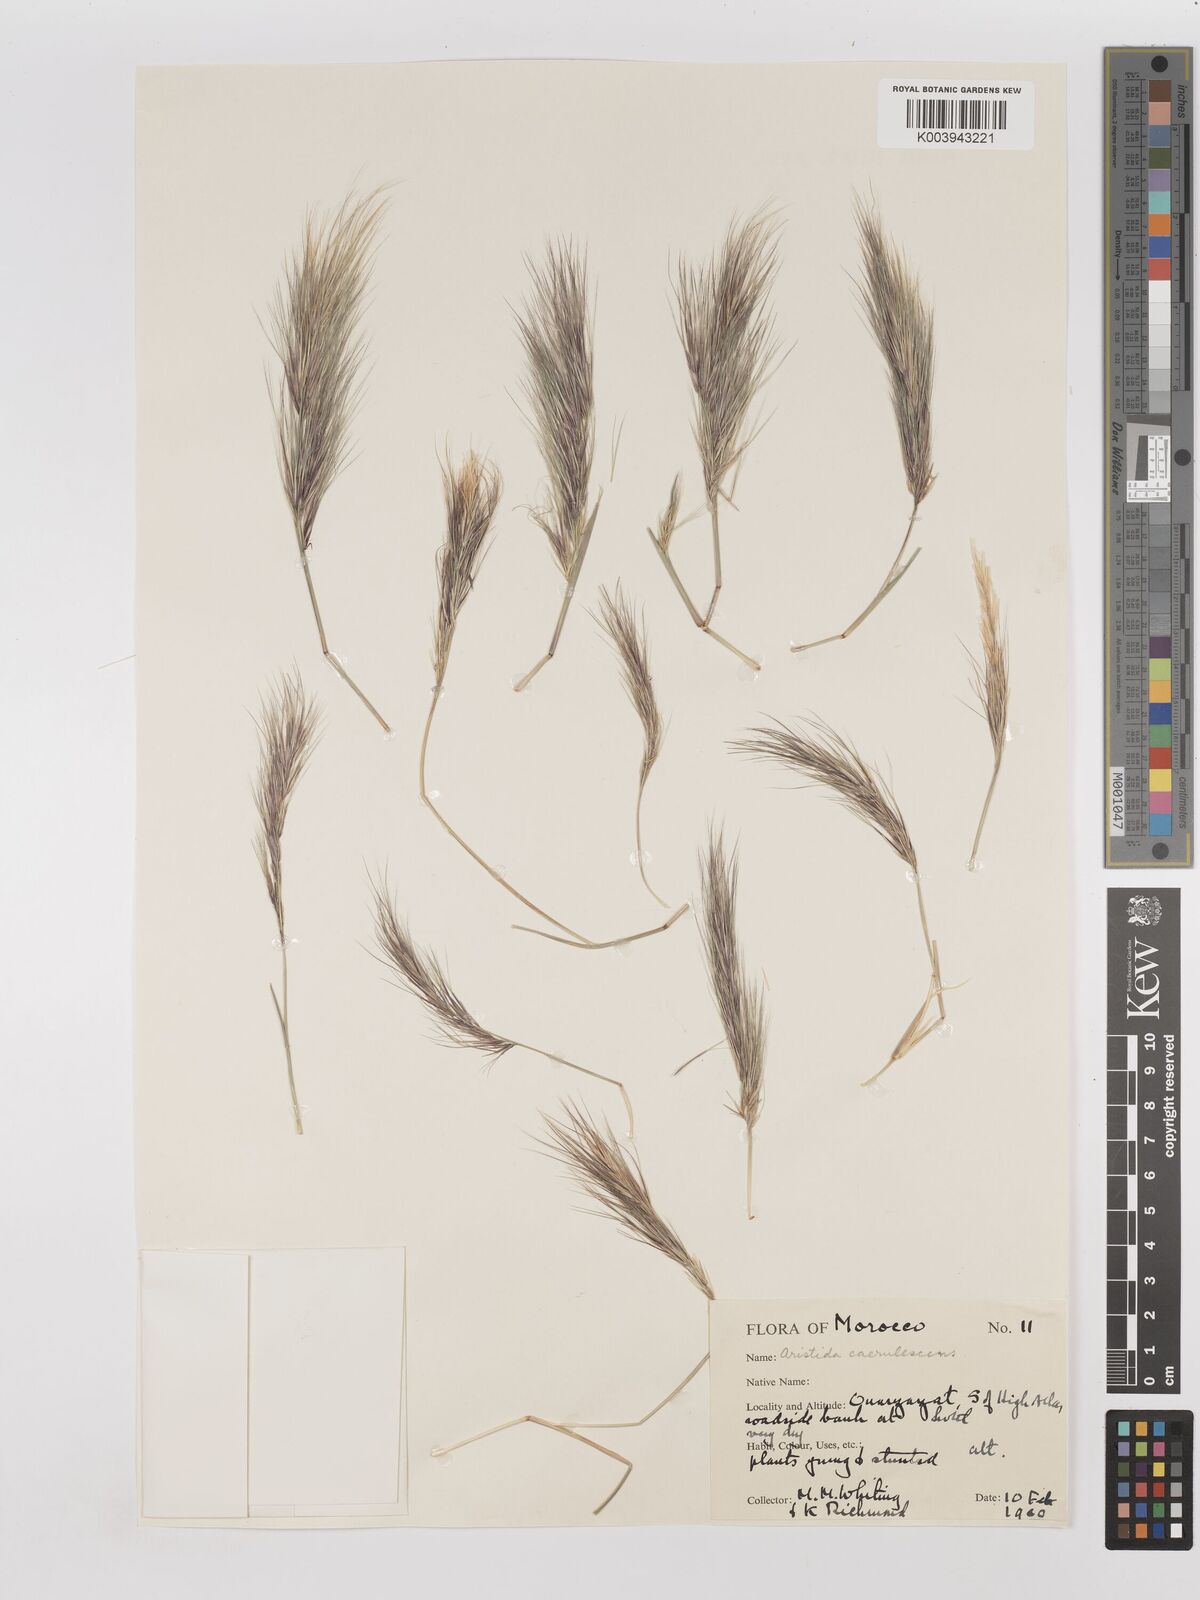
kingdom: Plantae
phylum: Tracheophyta
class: Liliopsida
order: Poales
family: Poaceae
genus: Aristida
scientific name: Aristida adscensionis
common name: Sixweeks threeawn
